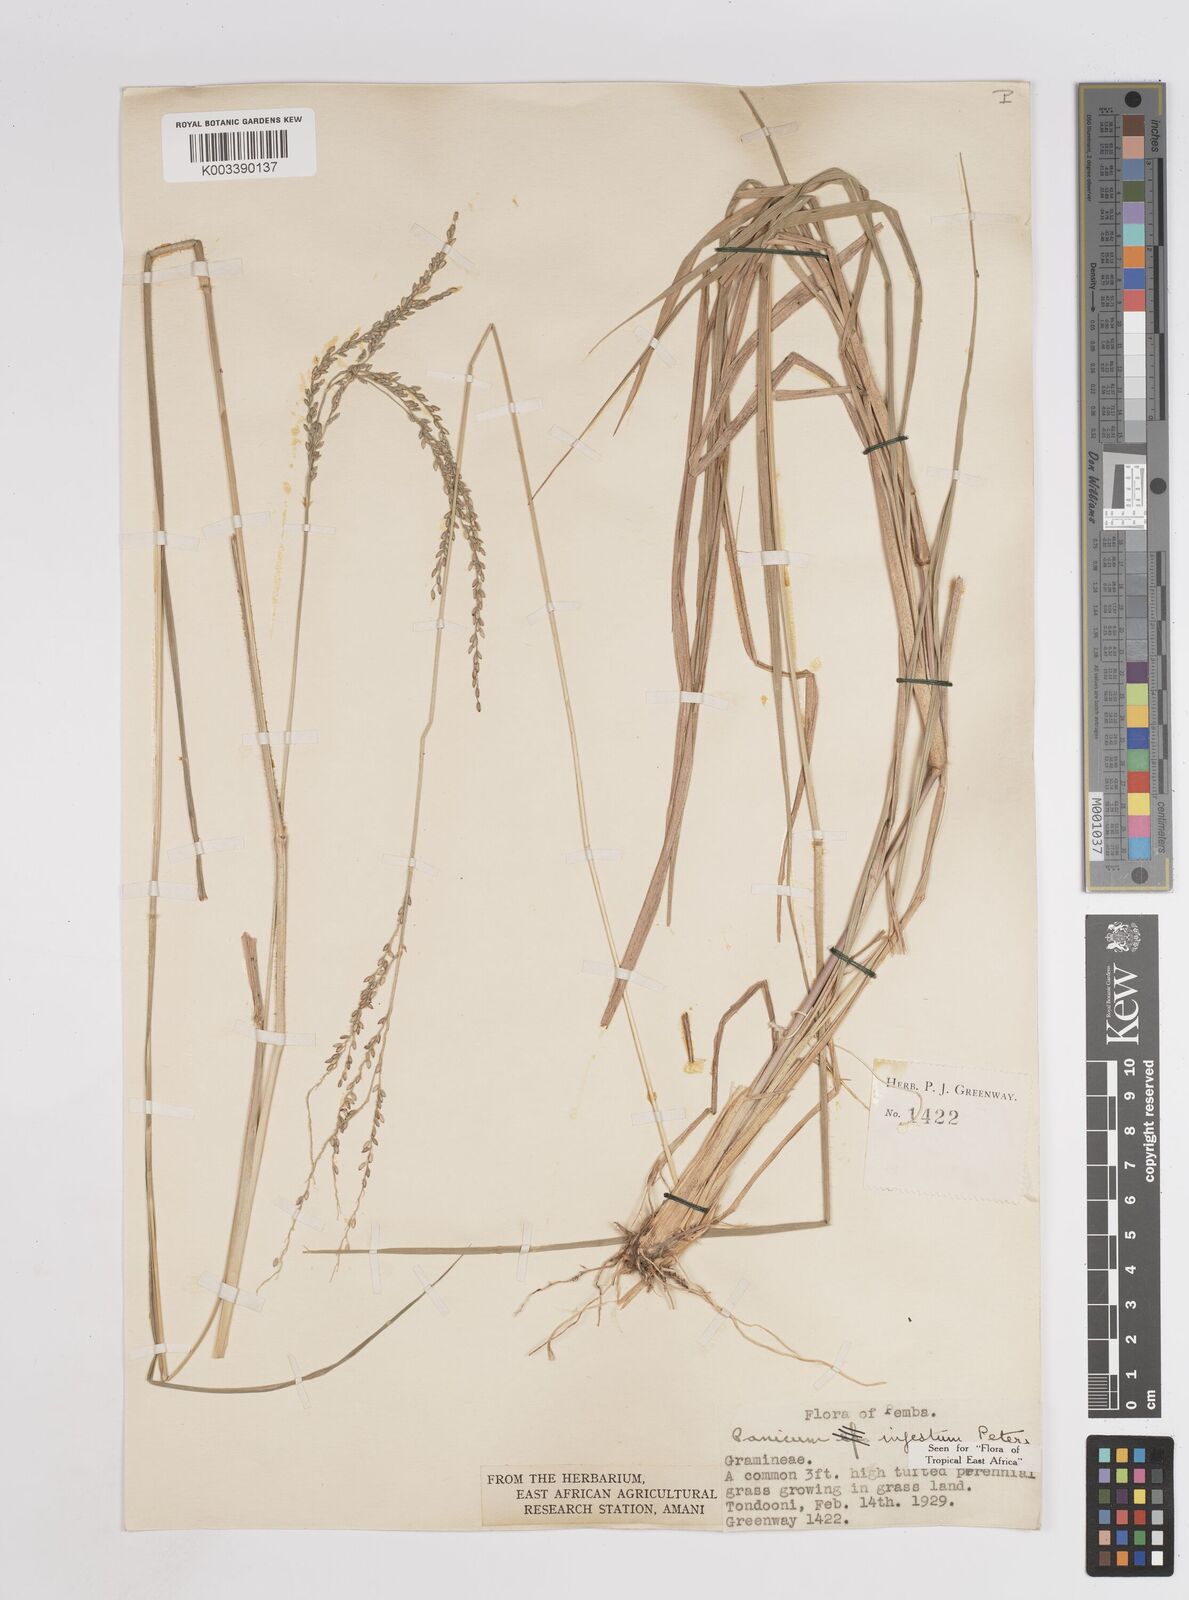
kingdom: Plantae
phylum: Tracheophyta
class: Liliopsida
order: Poales
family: Poaceae
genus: Megathyrsus
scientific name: Megathyrsus infestus
